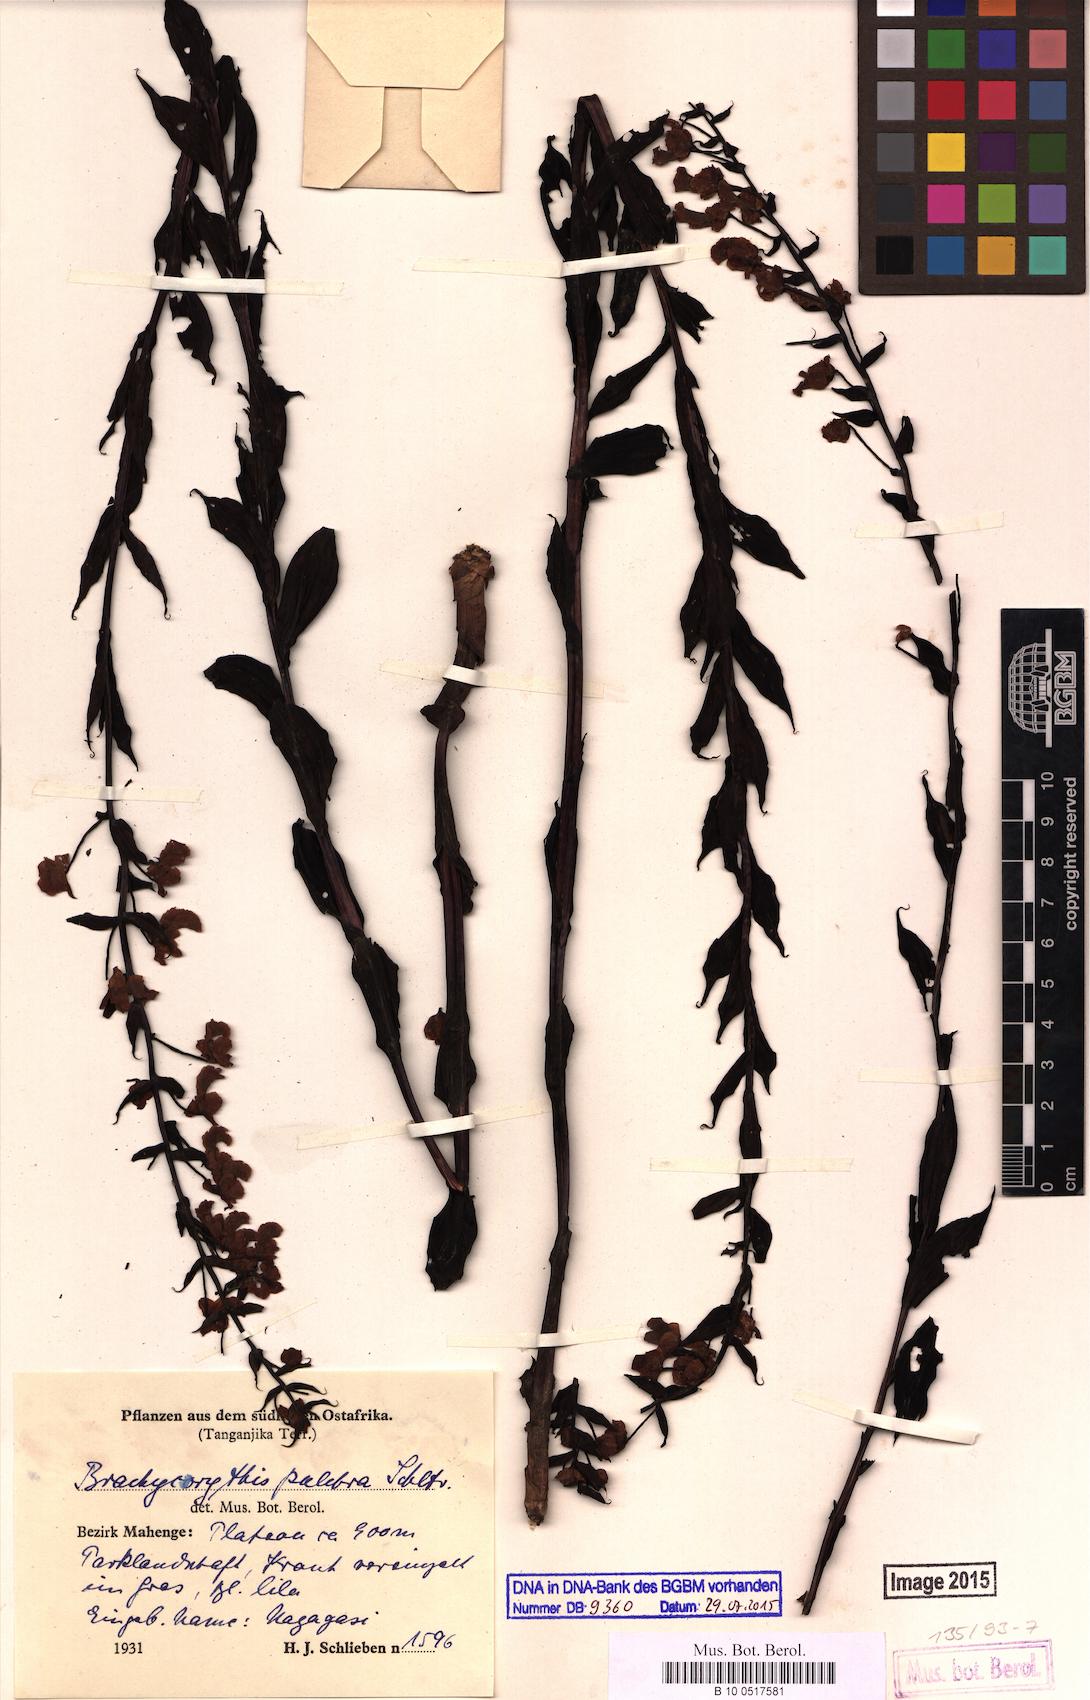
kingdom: Plantae
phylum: Tracheophyta
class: Liliopsida
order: Asparagales
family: Orchidaceae
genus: Brachycorythis
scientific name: Brachycorythis pleistophylla
